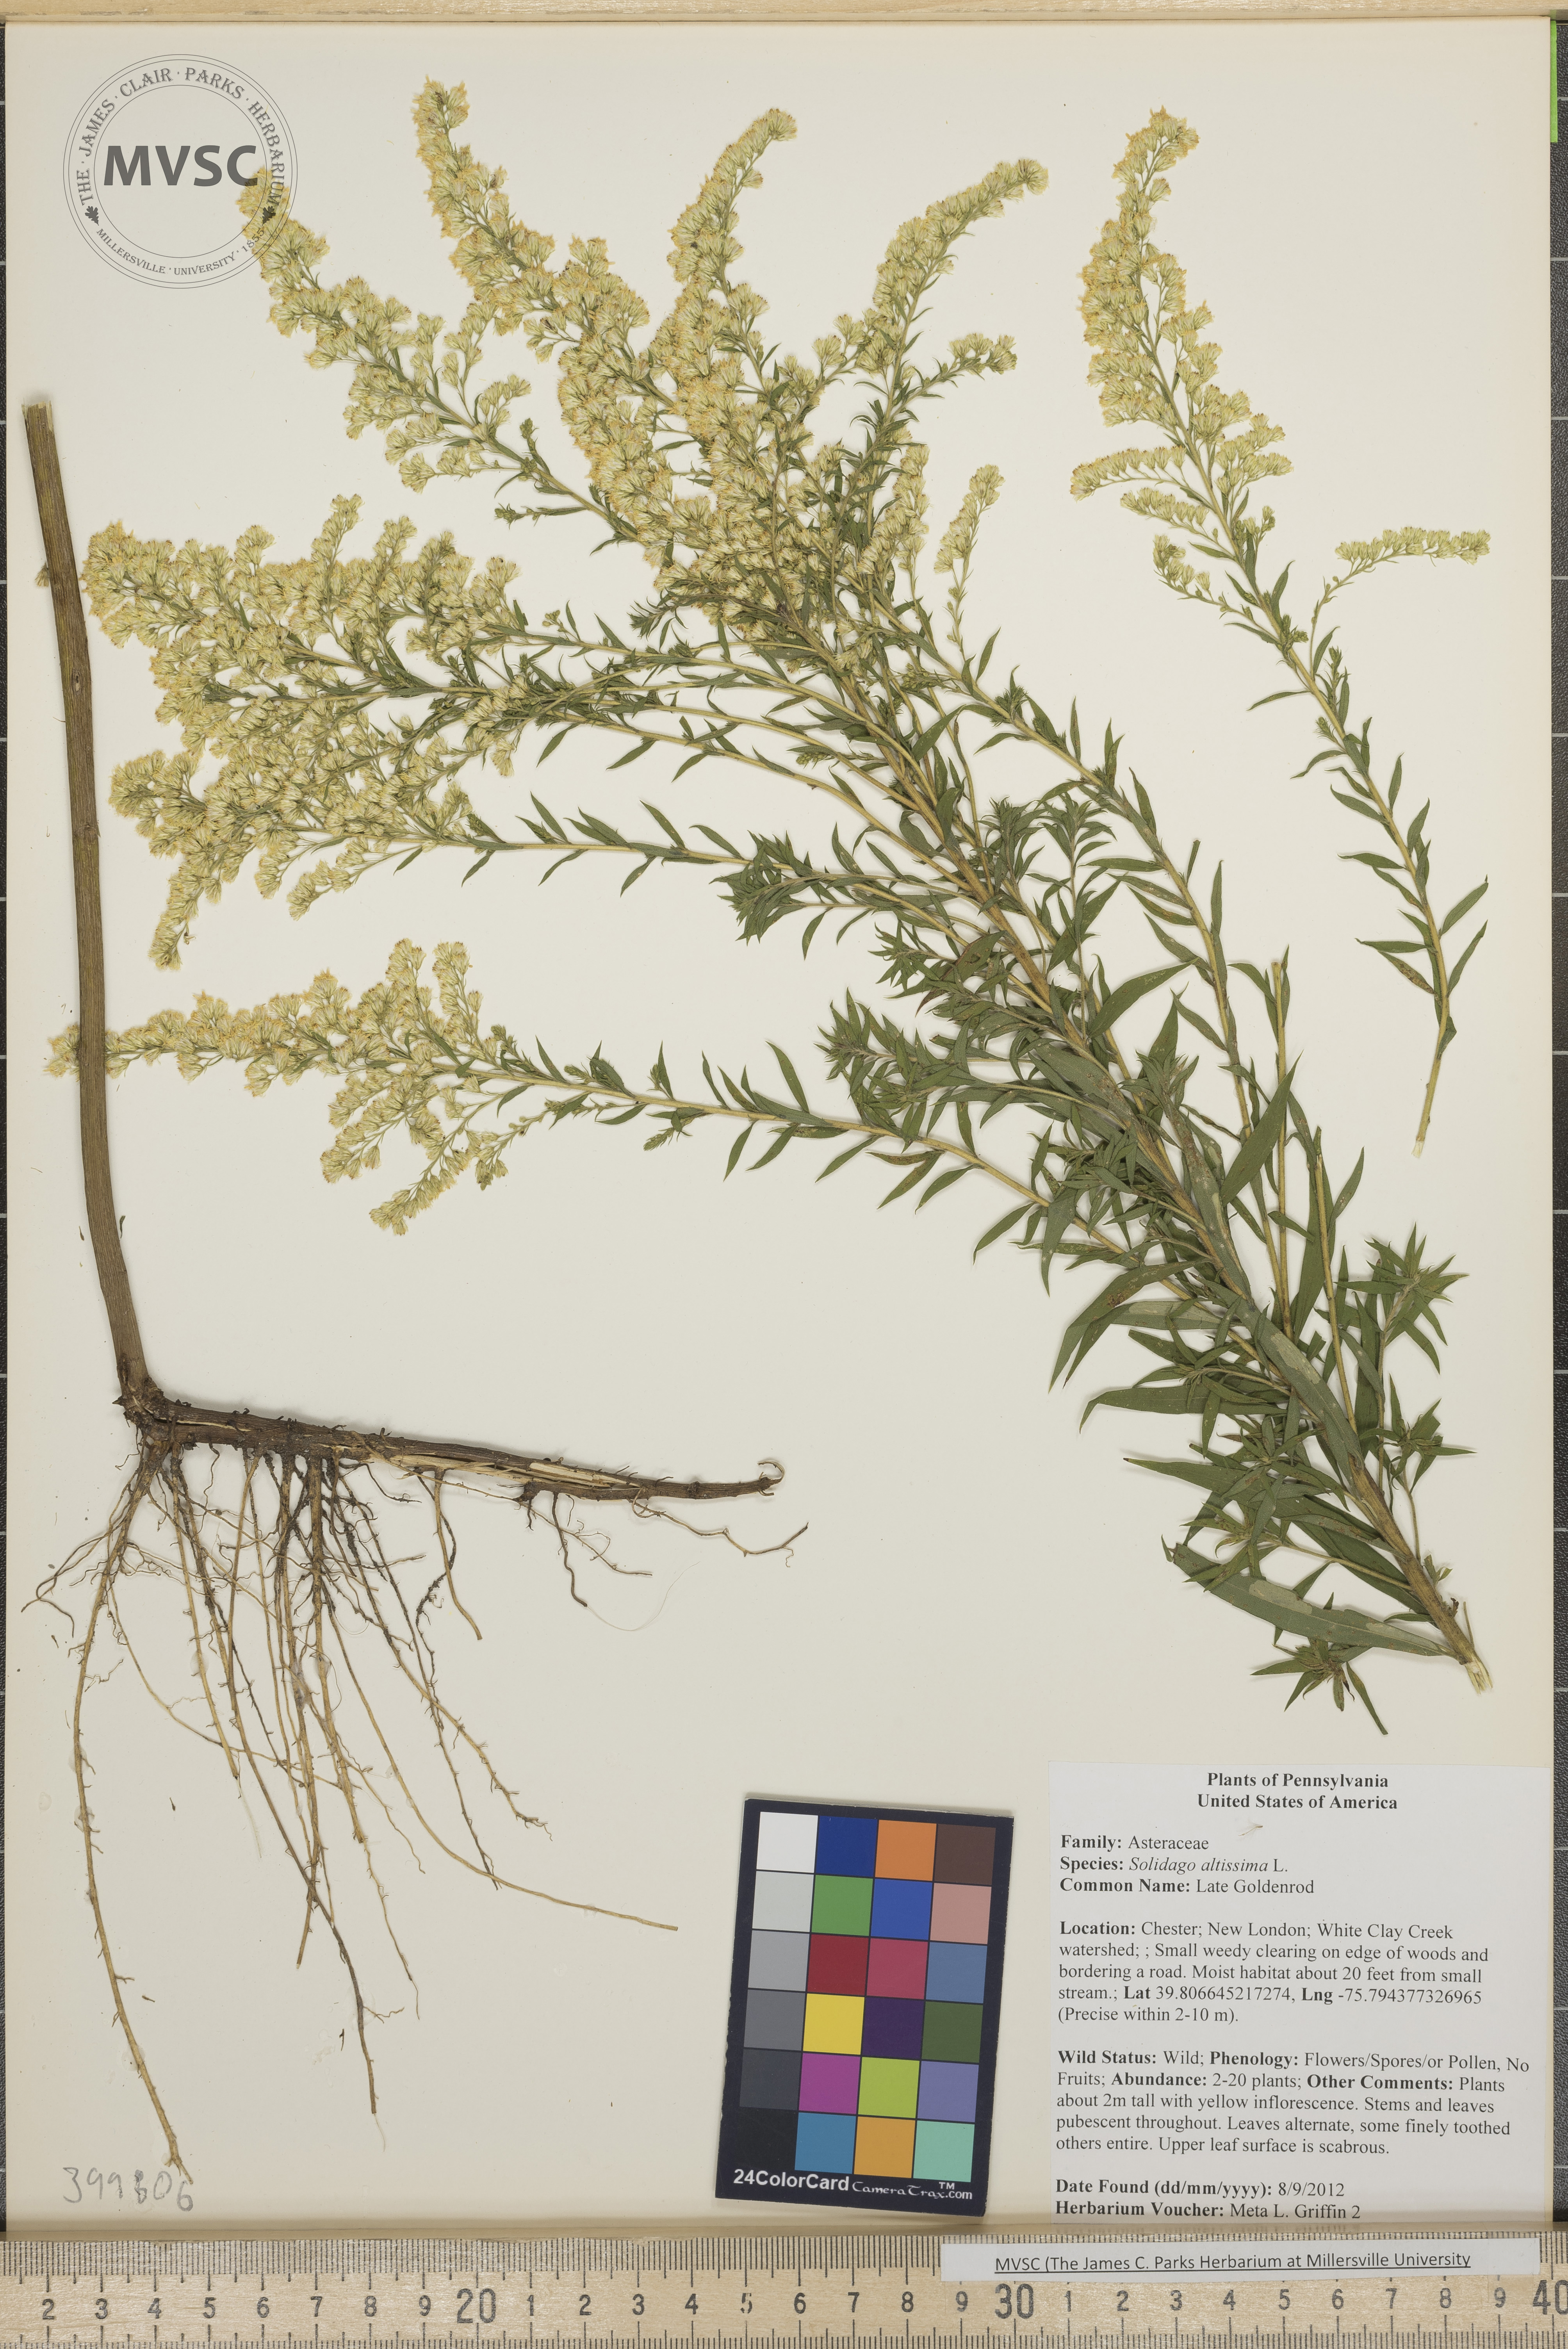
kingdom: Plantae
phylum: Tracheophyta
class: Magnoliopsida
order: Asterales
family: Asteraceae
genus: Solidago
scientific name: Solidago altissima
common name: Late Goldenrod
